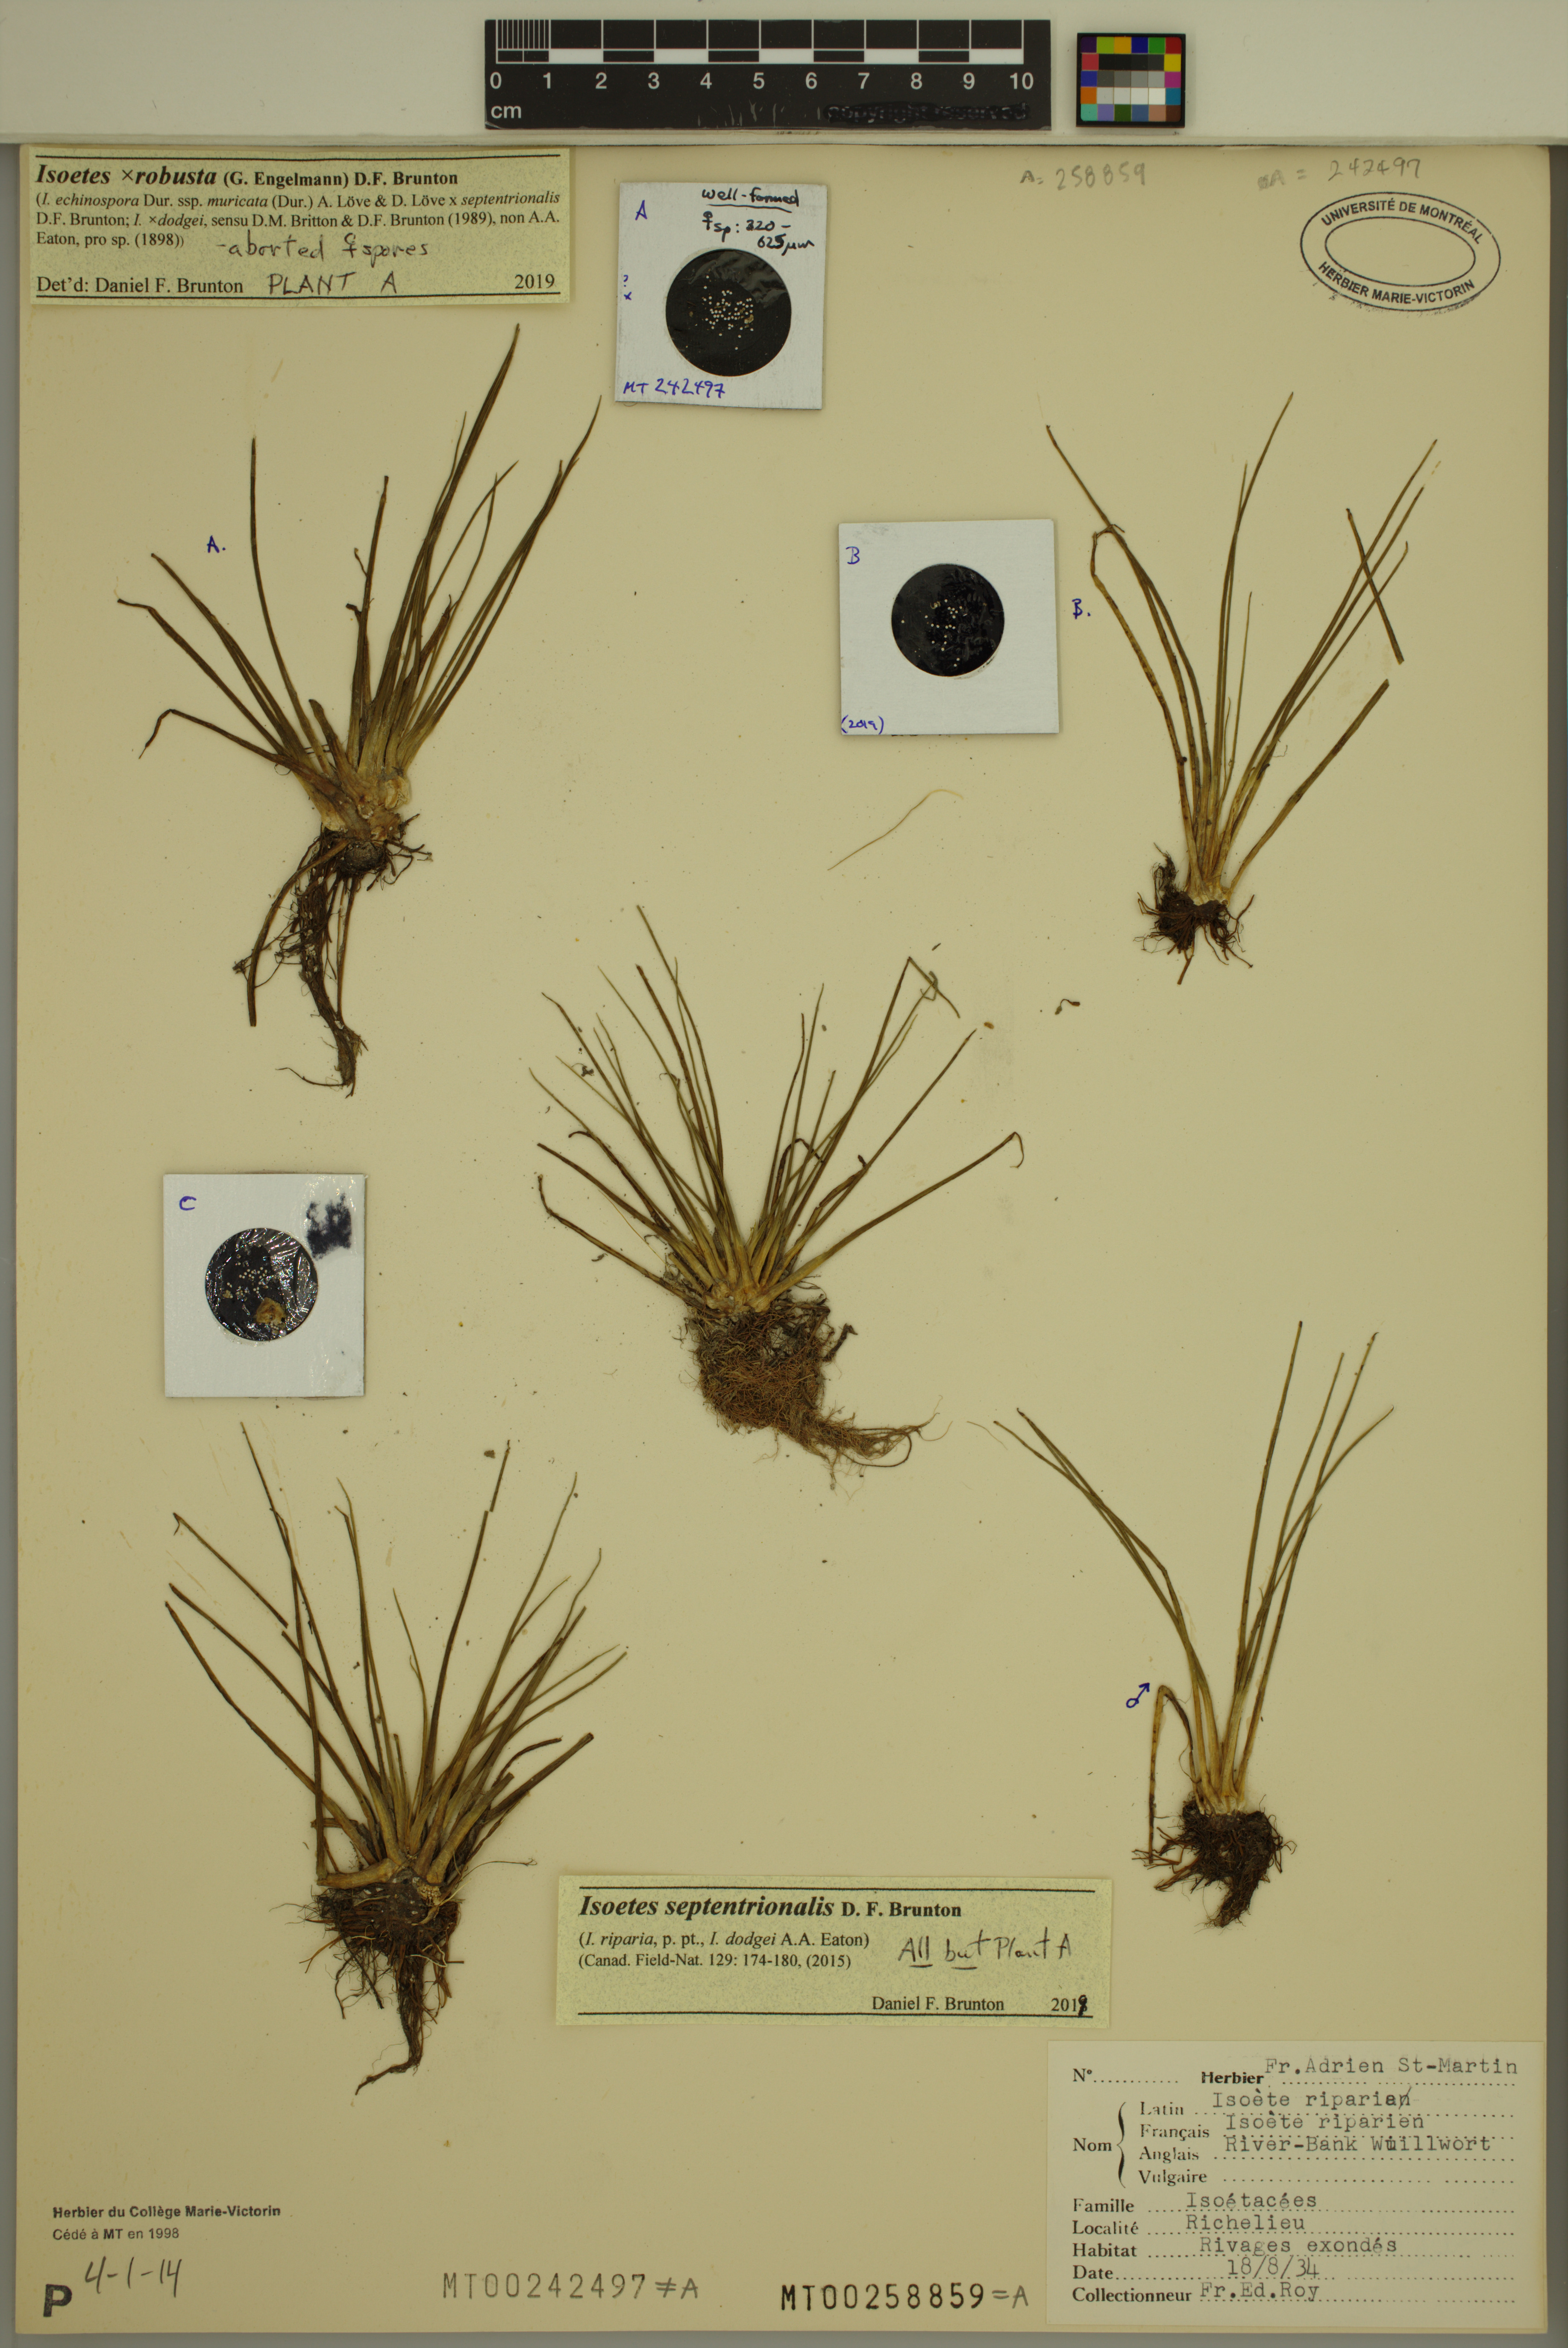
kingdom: Plantae
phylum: Tracheophyta
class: Lycopodiopsida
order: Isoetales
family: Isoetaceae
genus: Isoetes
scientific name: Isoetes septentrionalis
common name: Northern quillwort
